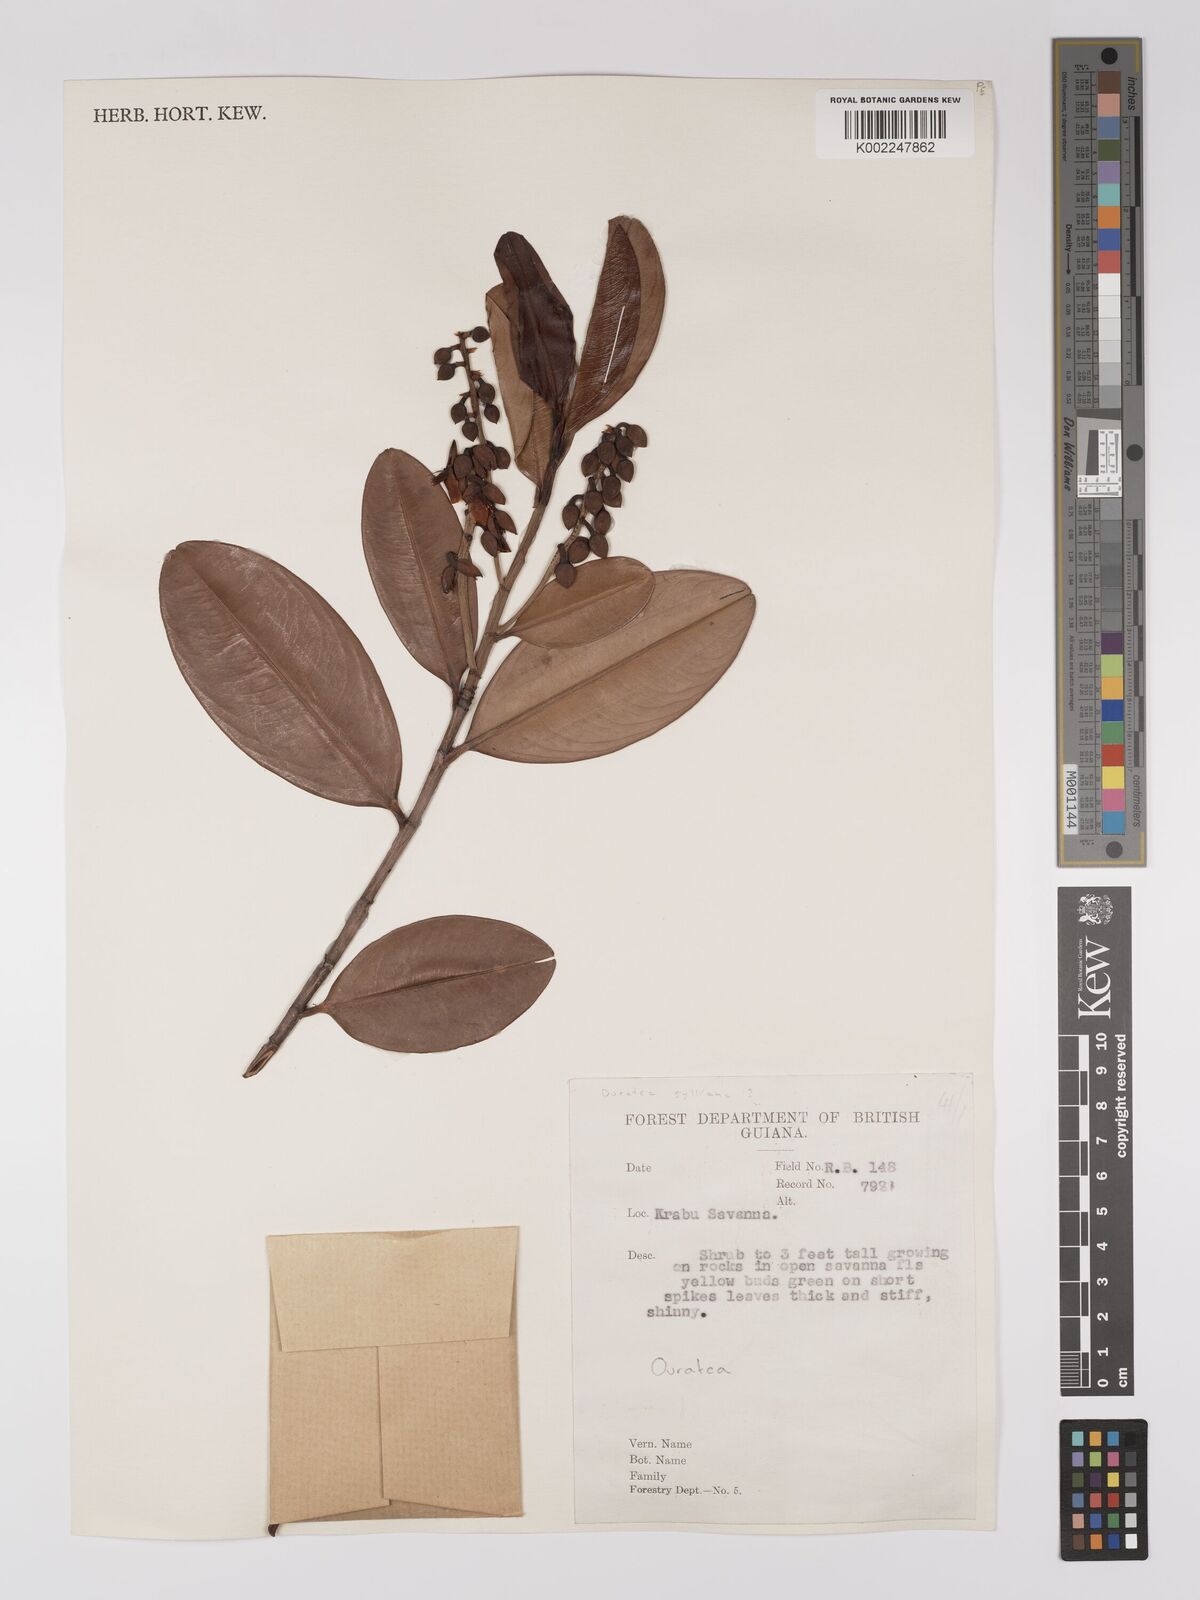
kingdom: Plantae
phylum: Tracheophyta
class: Magnoliopsida
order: Malpighiales
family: Ochnaceae
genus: Ouratea
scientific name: Ouratea
